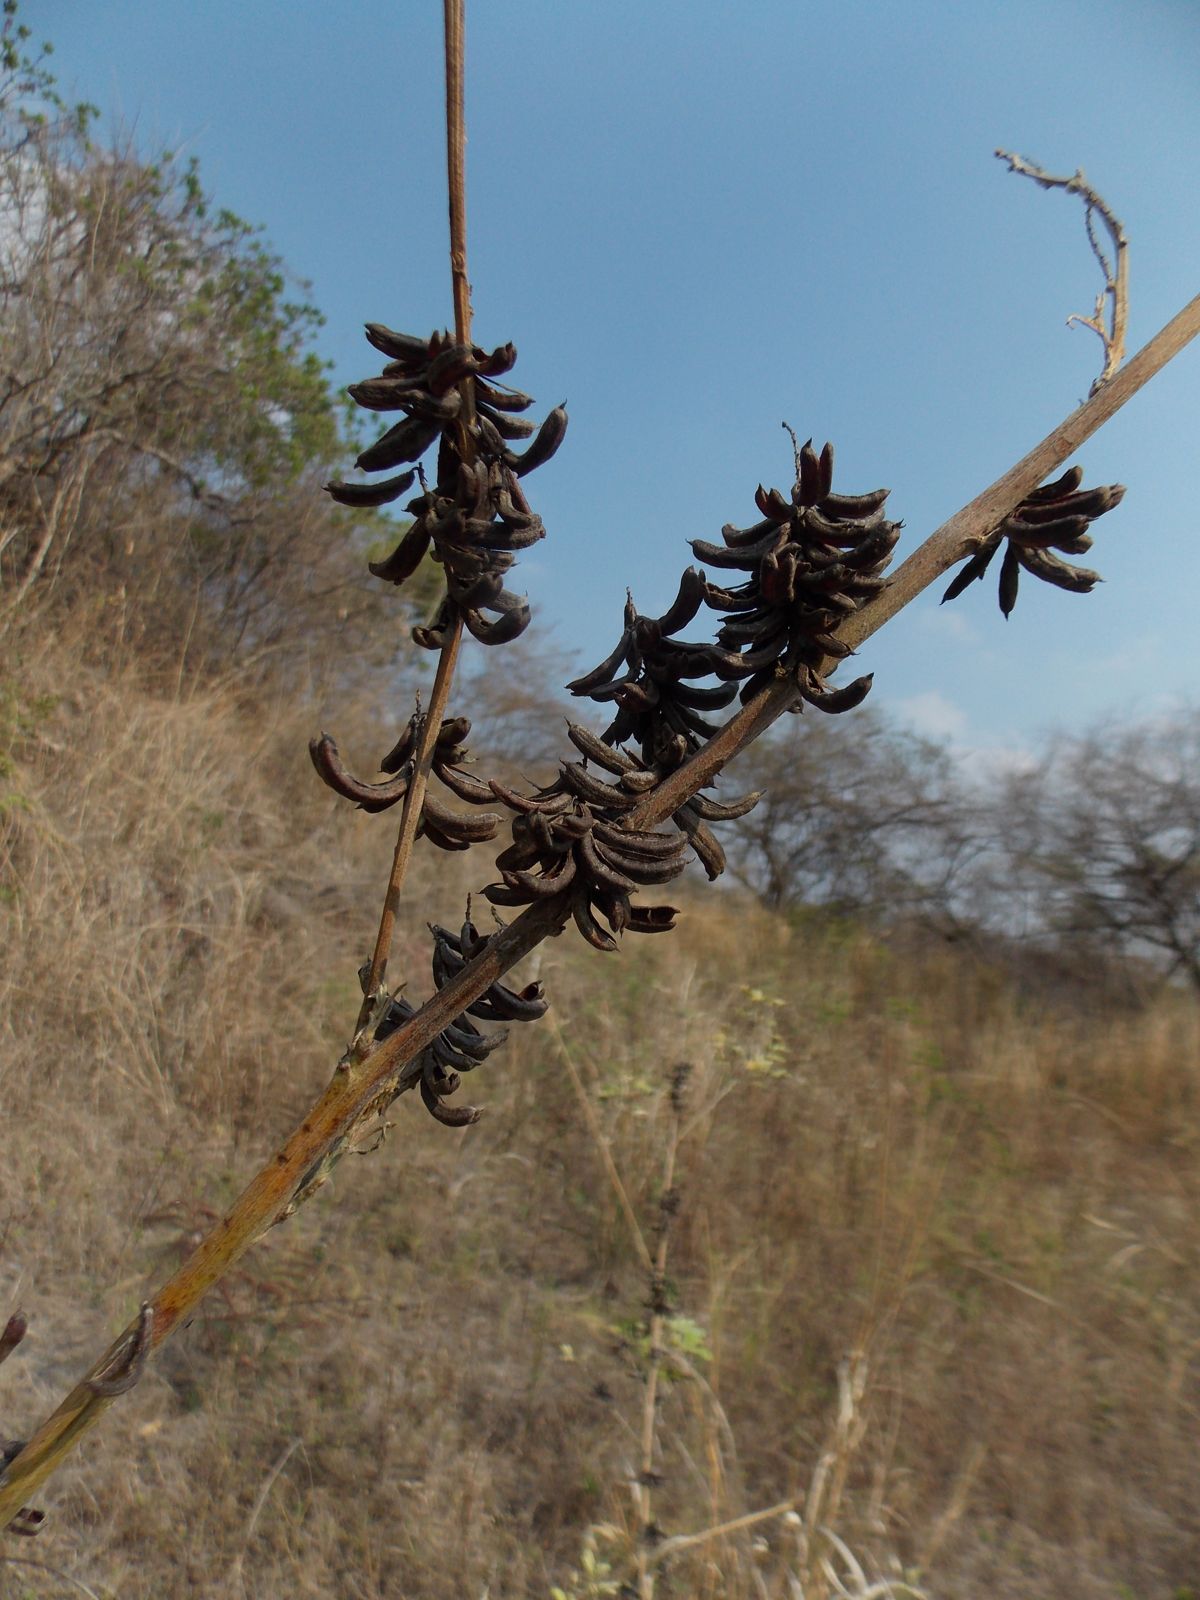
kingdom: Plantae
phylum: Tracheophyta
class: Magnoliopsida
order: Fabales
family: Fabaceae
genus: Indigofera
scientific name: Indigofera micheliana
